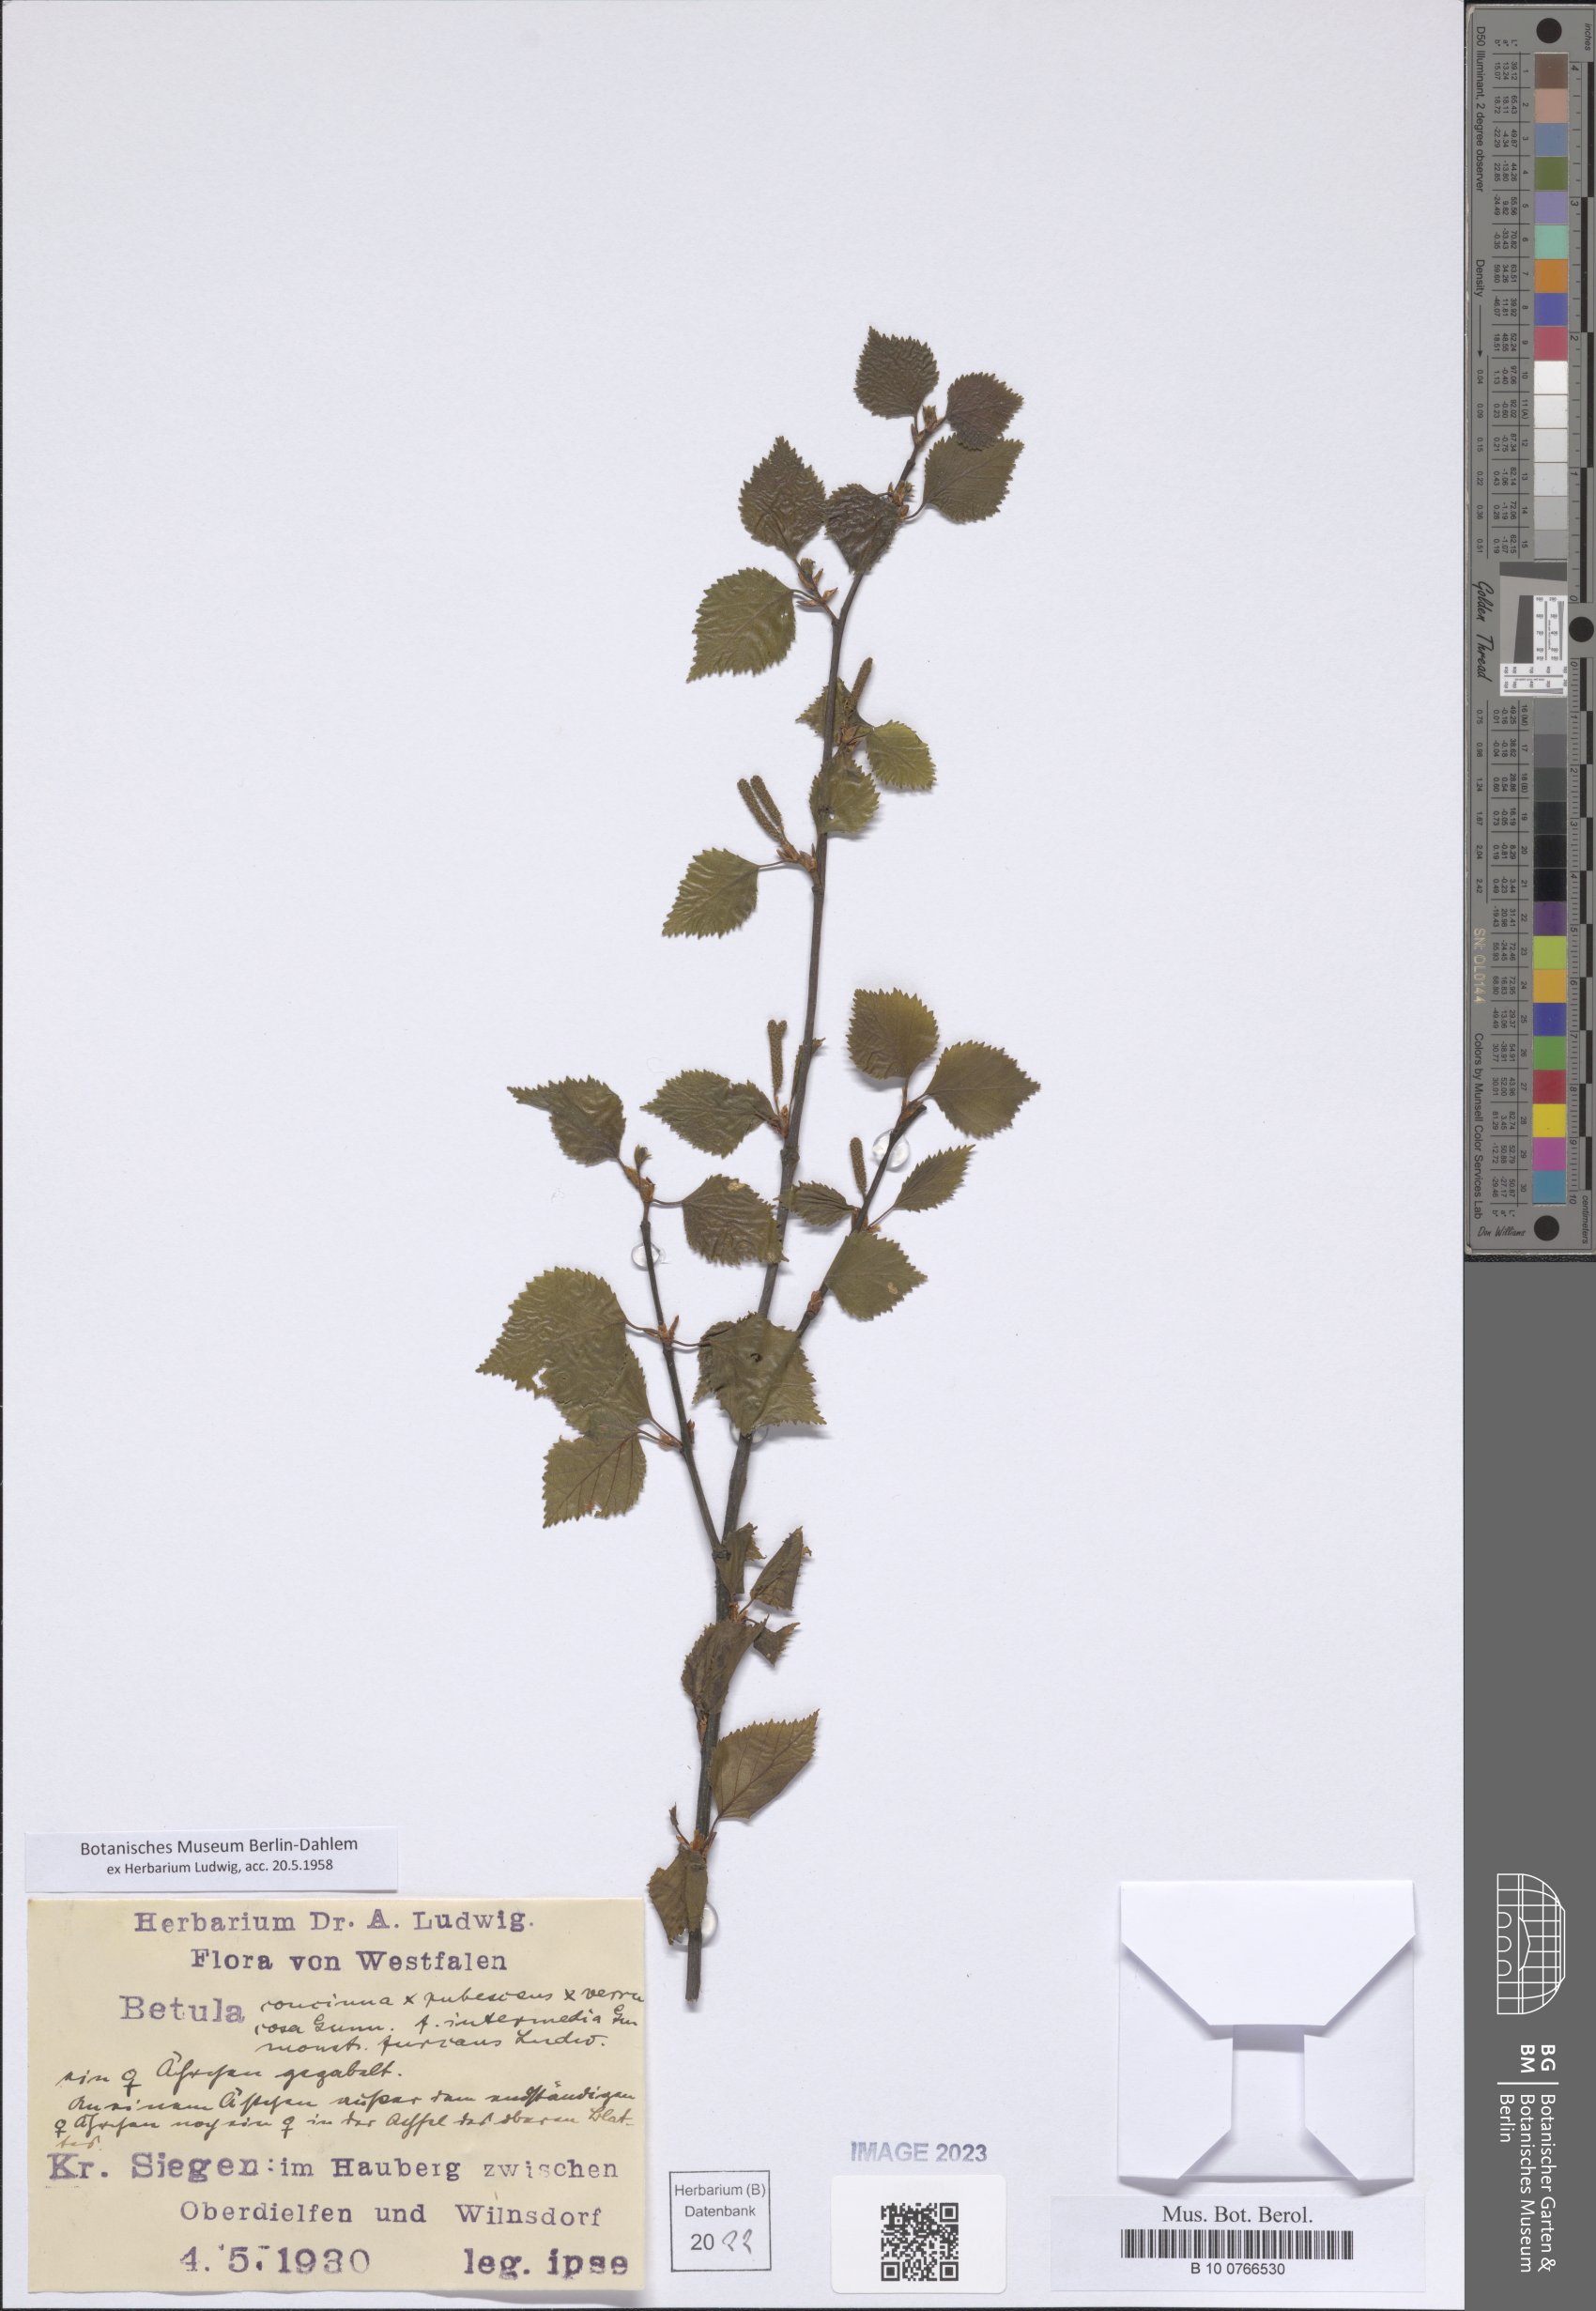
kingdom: Plantae
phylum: Tracheophyta
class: Magnoliopsida
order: Fagales
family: Betulaceae
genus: Betula
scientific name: Betula
